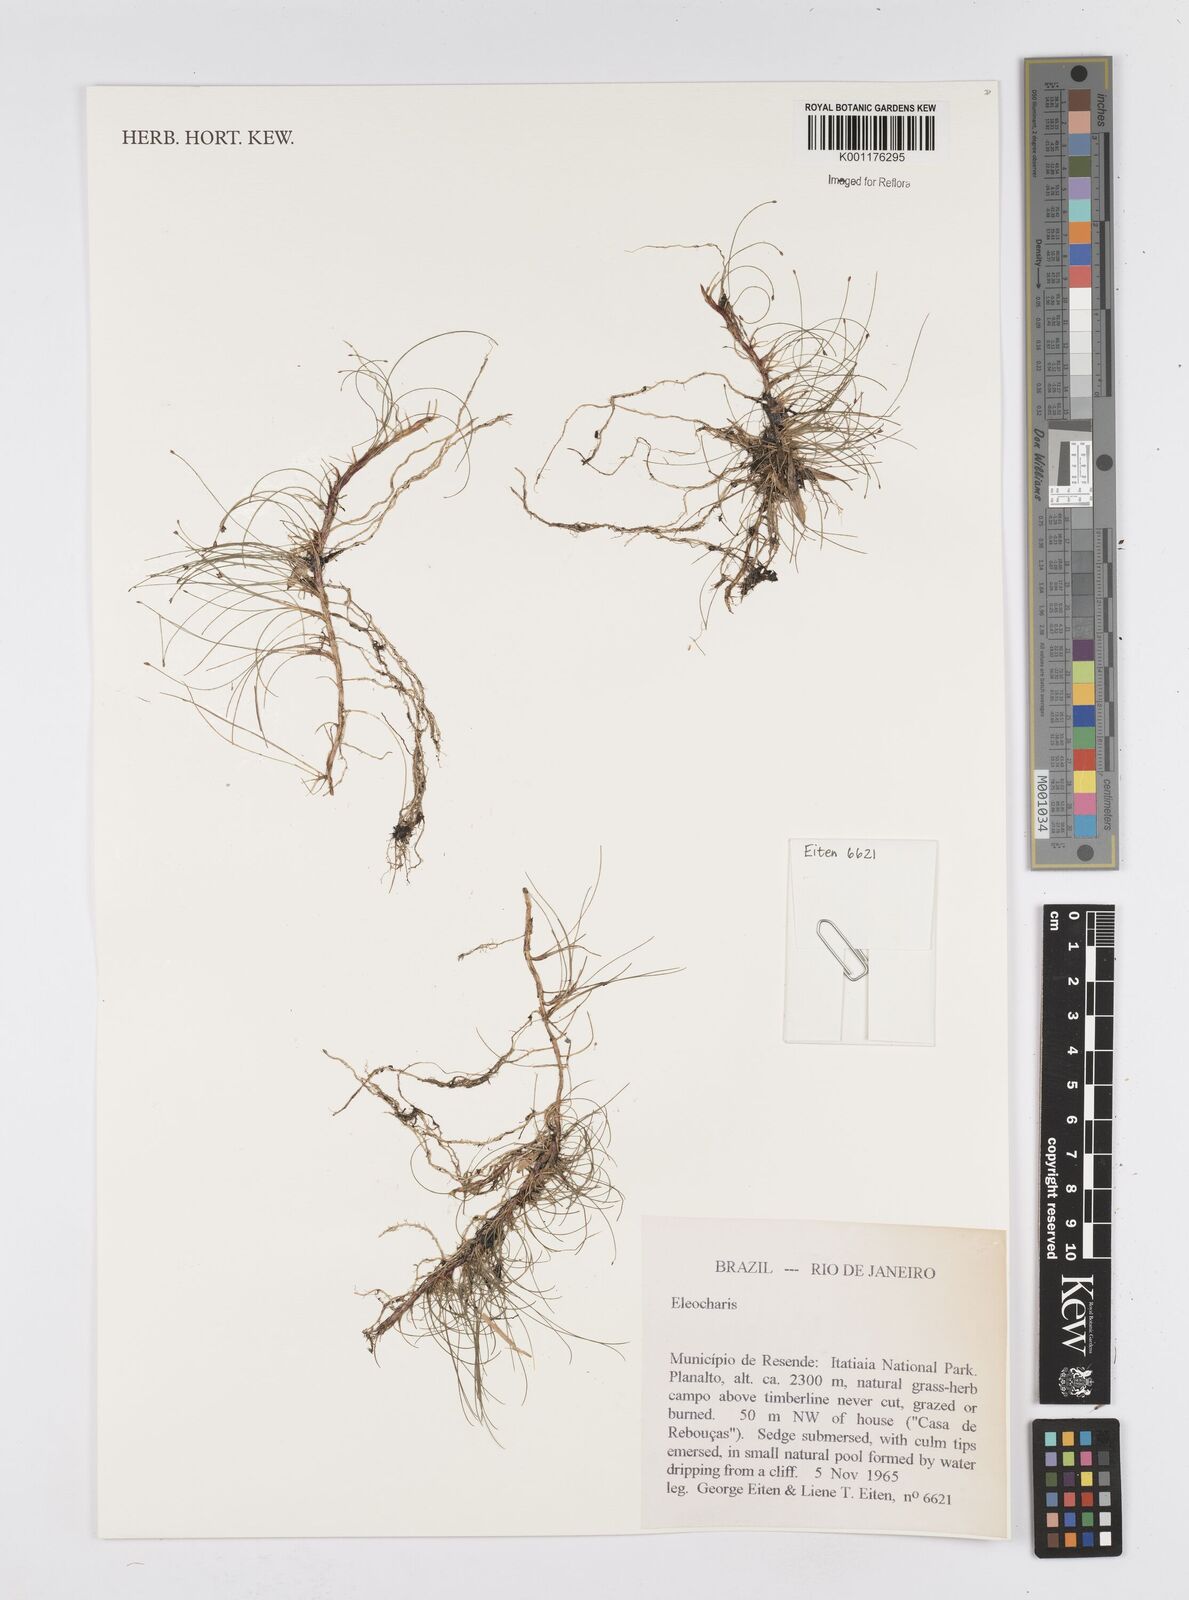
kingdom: Plantae
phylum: Tracheophyta
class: Liliopsida
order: Poales
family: Cyperaceae
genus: Eleocharis
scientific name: Eleocharis
